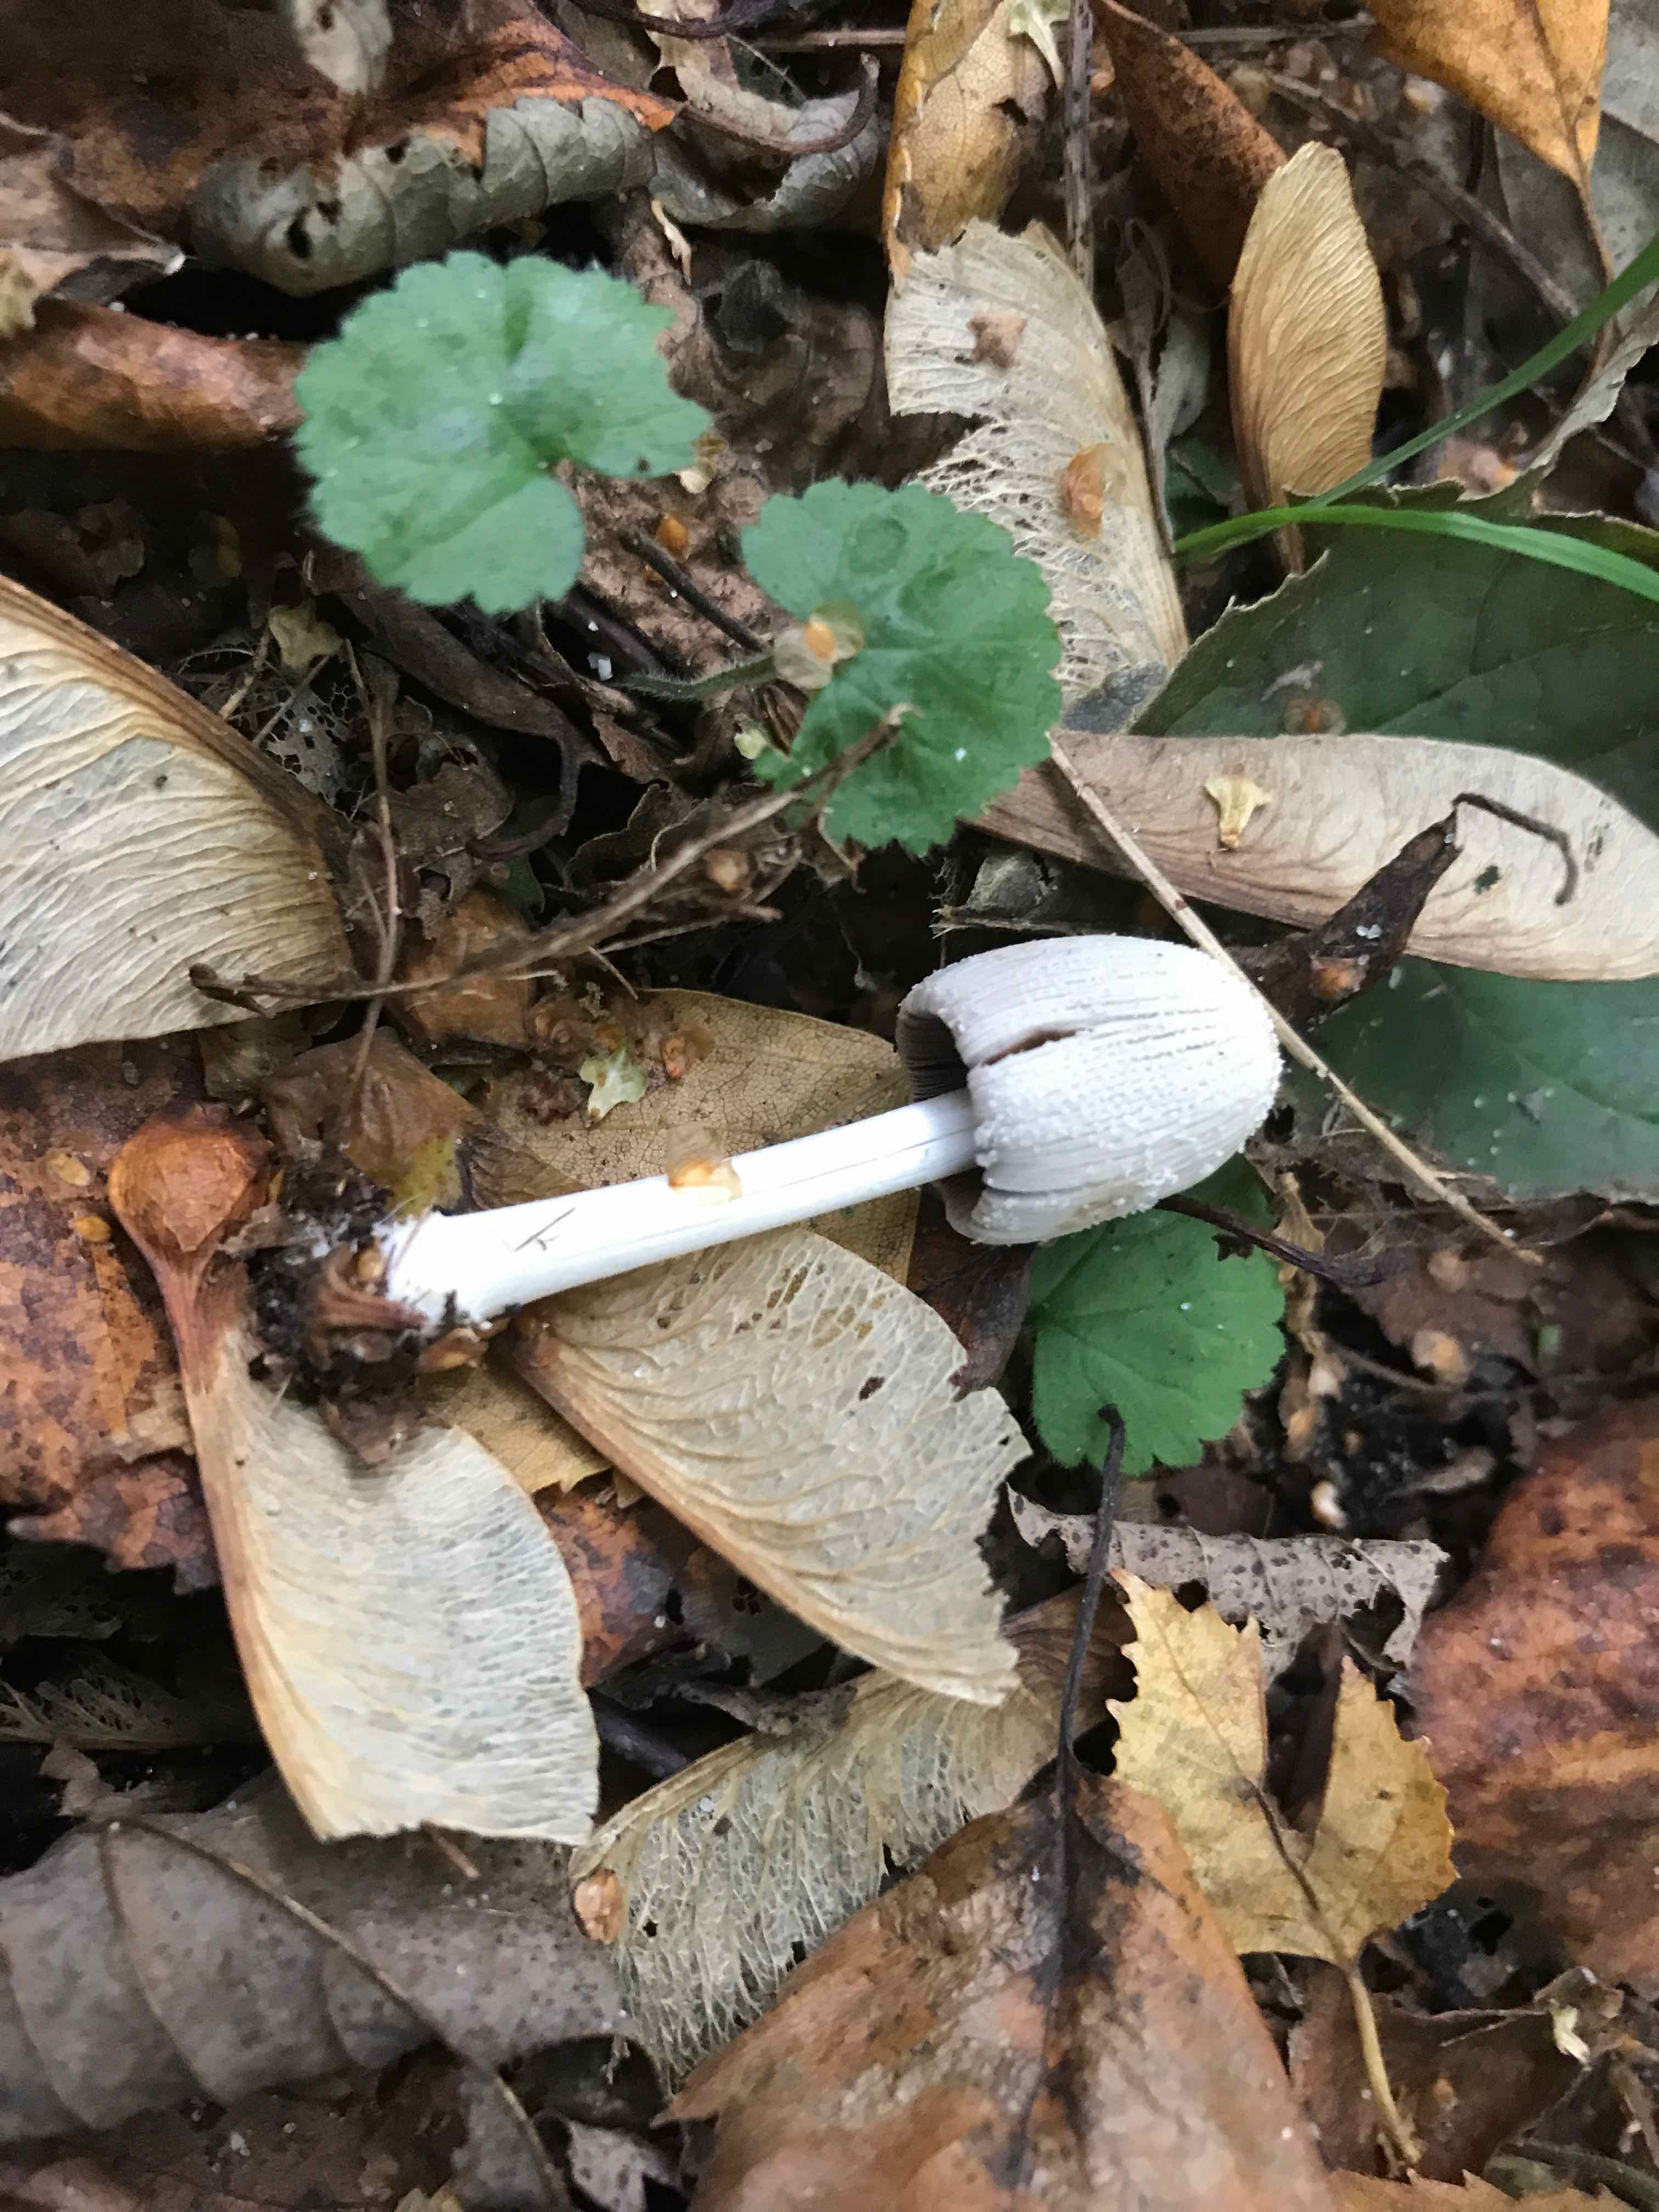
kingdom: Fungi
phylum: Basidiomycota
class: Agaricomycetes
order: Agaricales
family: Psathyrellaceae
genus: Coprinellus
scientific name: Coprinellus
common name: blækhat
